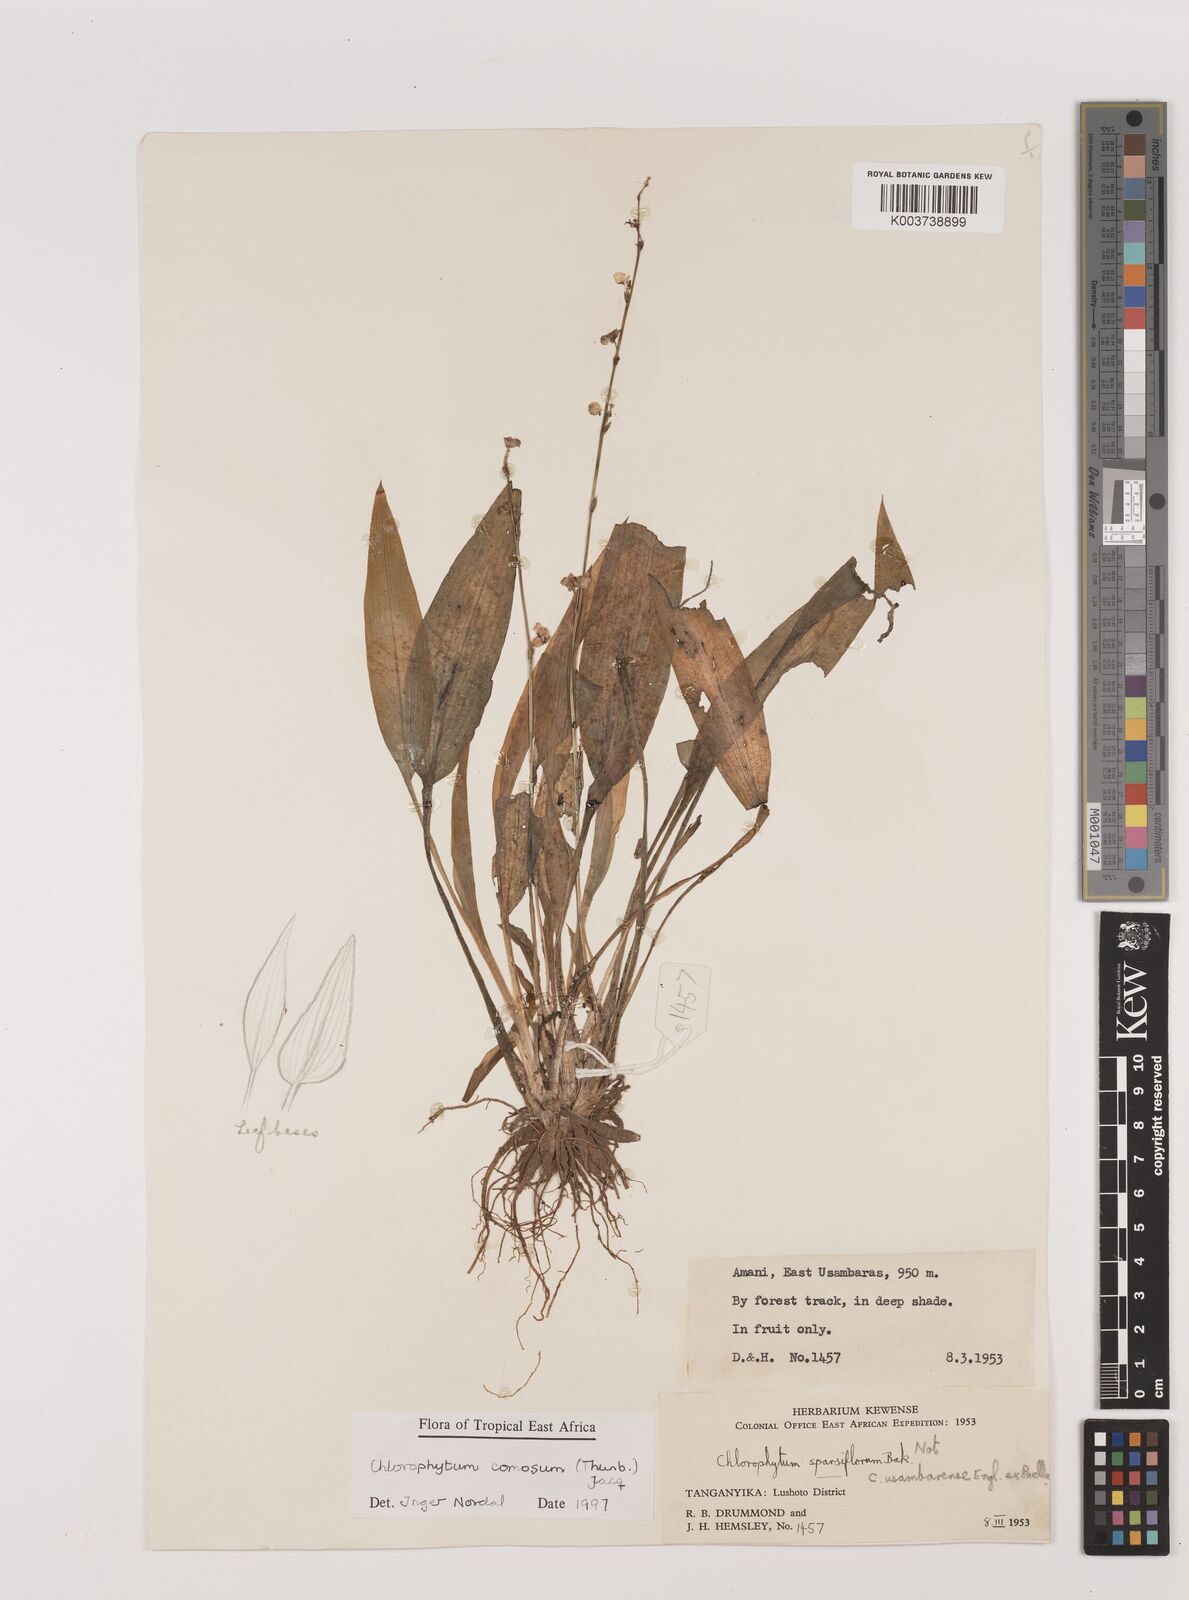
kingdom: Plantae
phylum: Tracheophyta
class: Liliopsida
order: Asparagales
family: Asparagaceae
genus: Chlorophytum
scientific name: Chlorophytum comosum
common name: Spider plant
